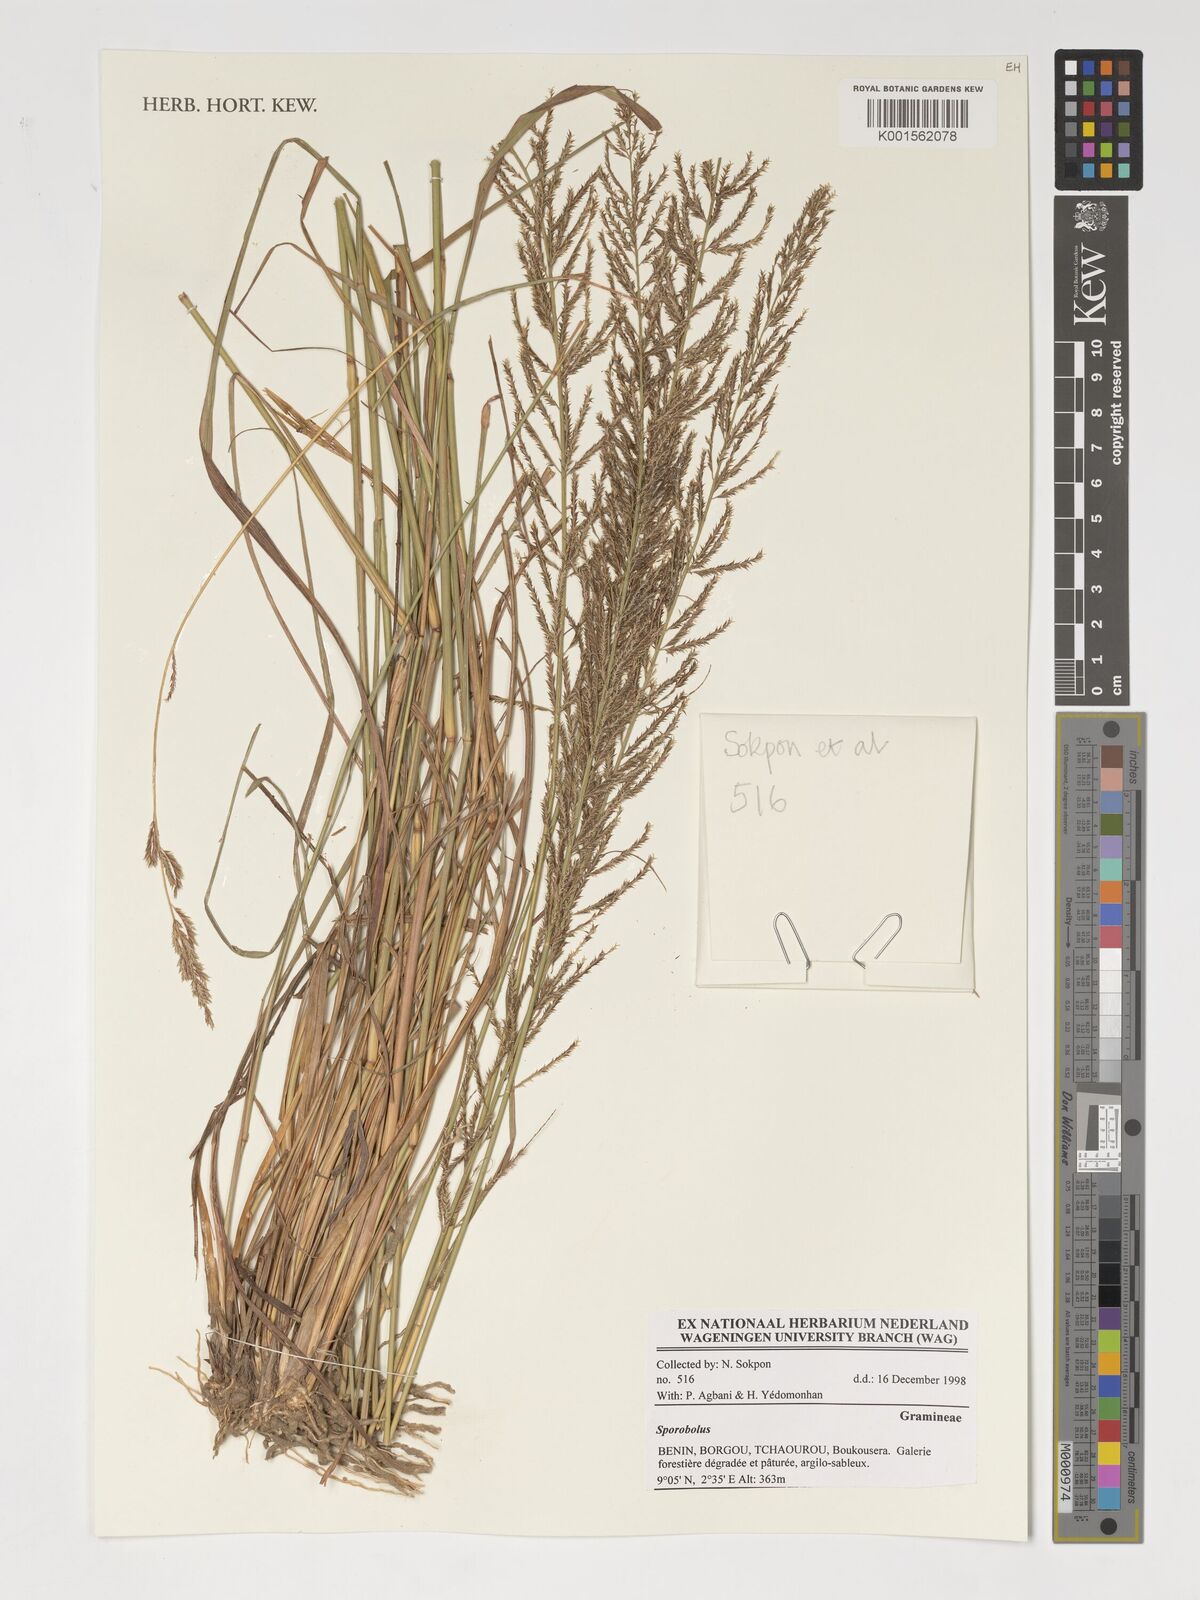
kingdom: Plantae
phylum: Tracheophyta
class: Liliopsida
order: Poales
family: Poaceae
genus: Sporobolus
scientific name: Sporobolus
